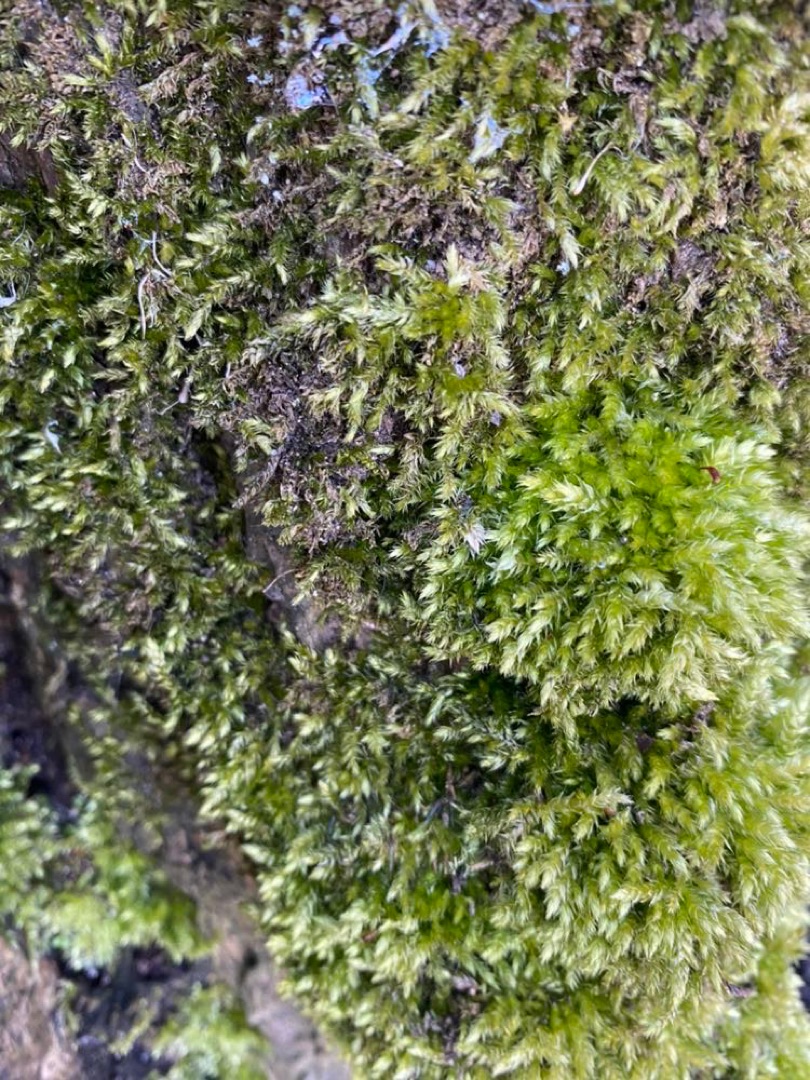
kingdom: Plantae
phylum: Bryophyta
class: Bryopsida
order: Hypnales
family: Brachytheciaceae
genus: Brachythecium
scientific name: Brachythecium rutabulum
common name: Almindelig kortkapsel
